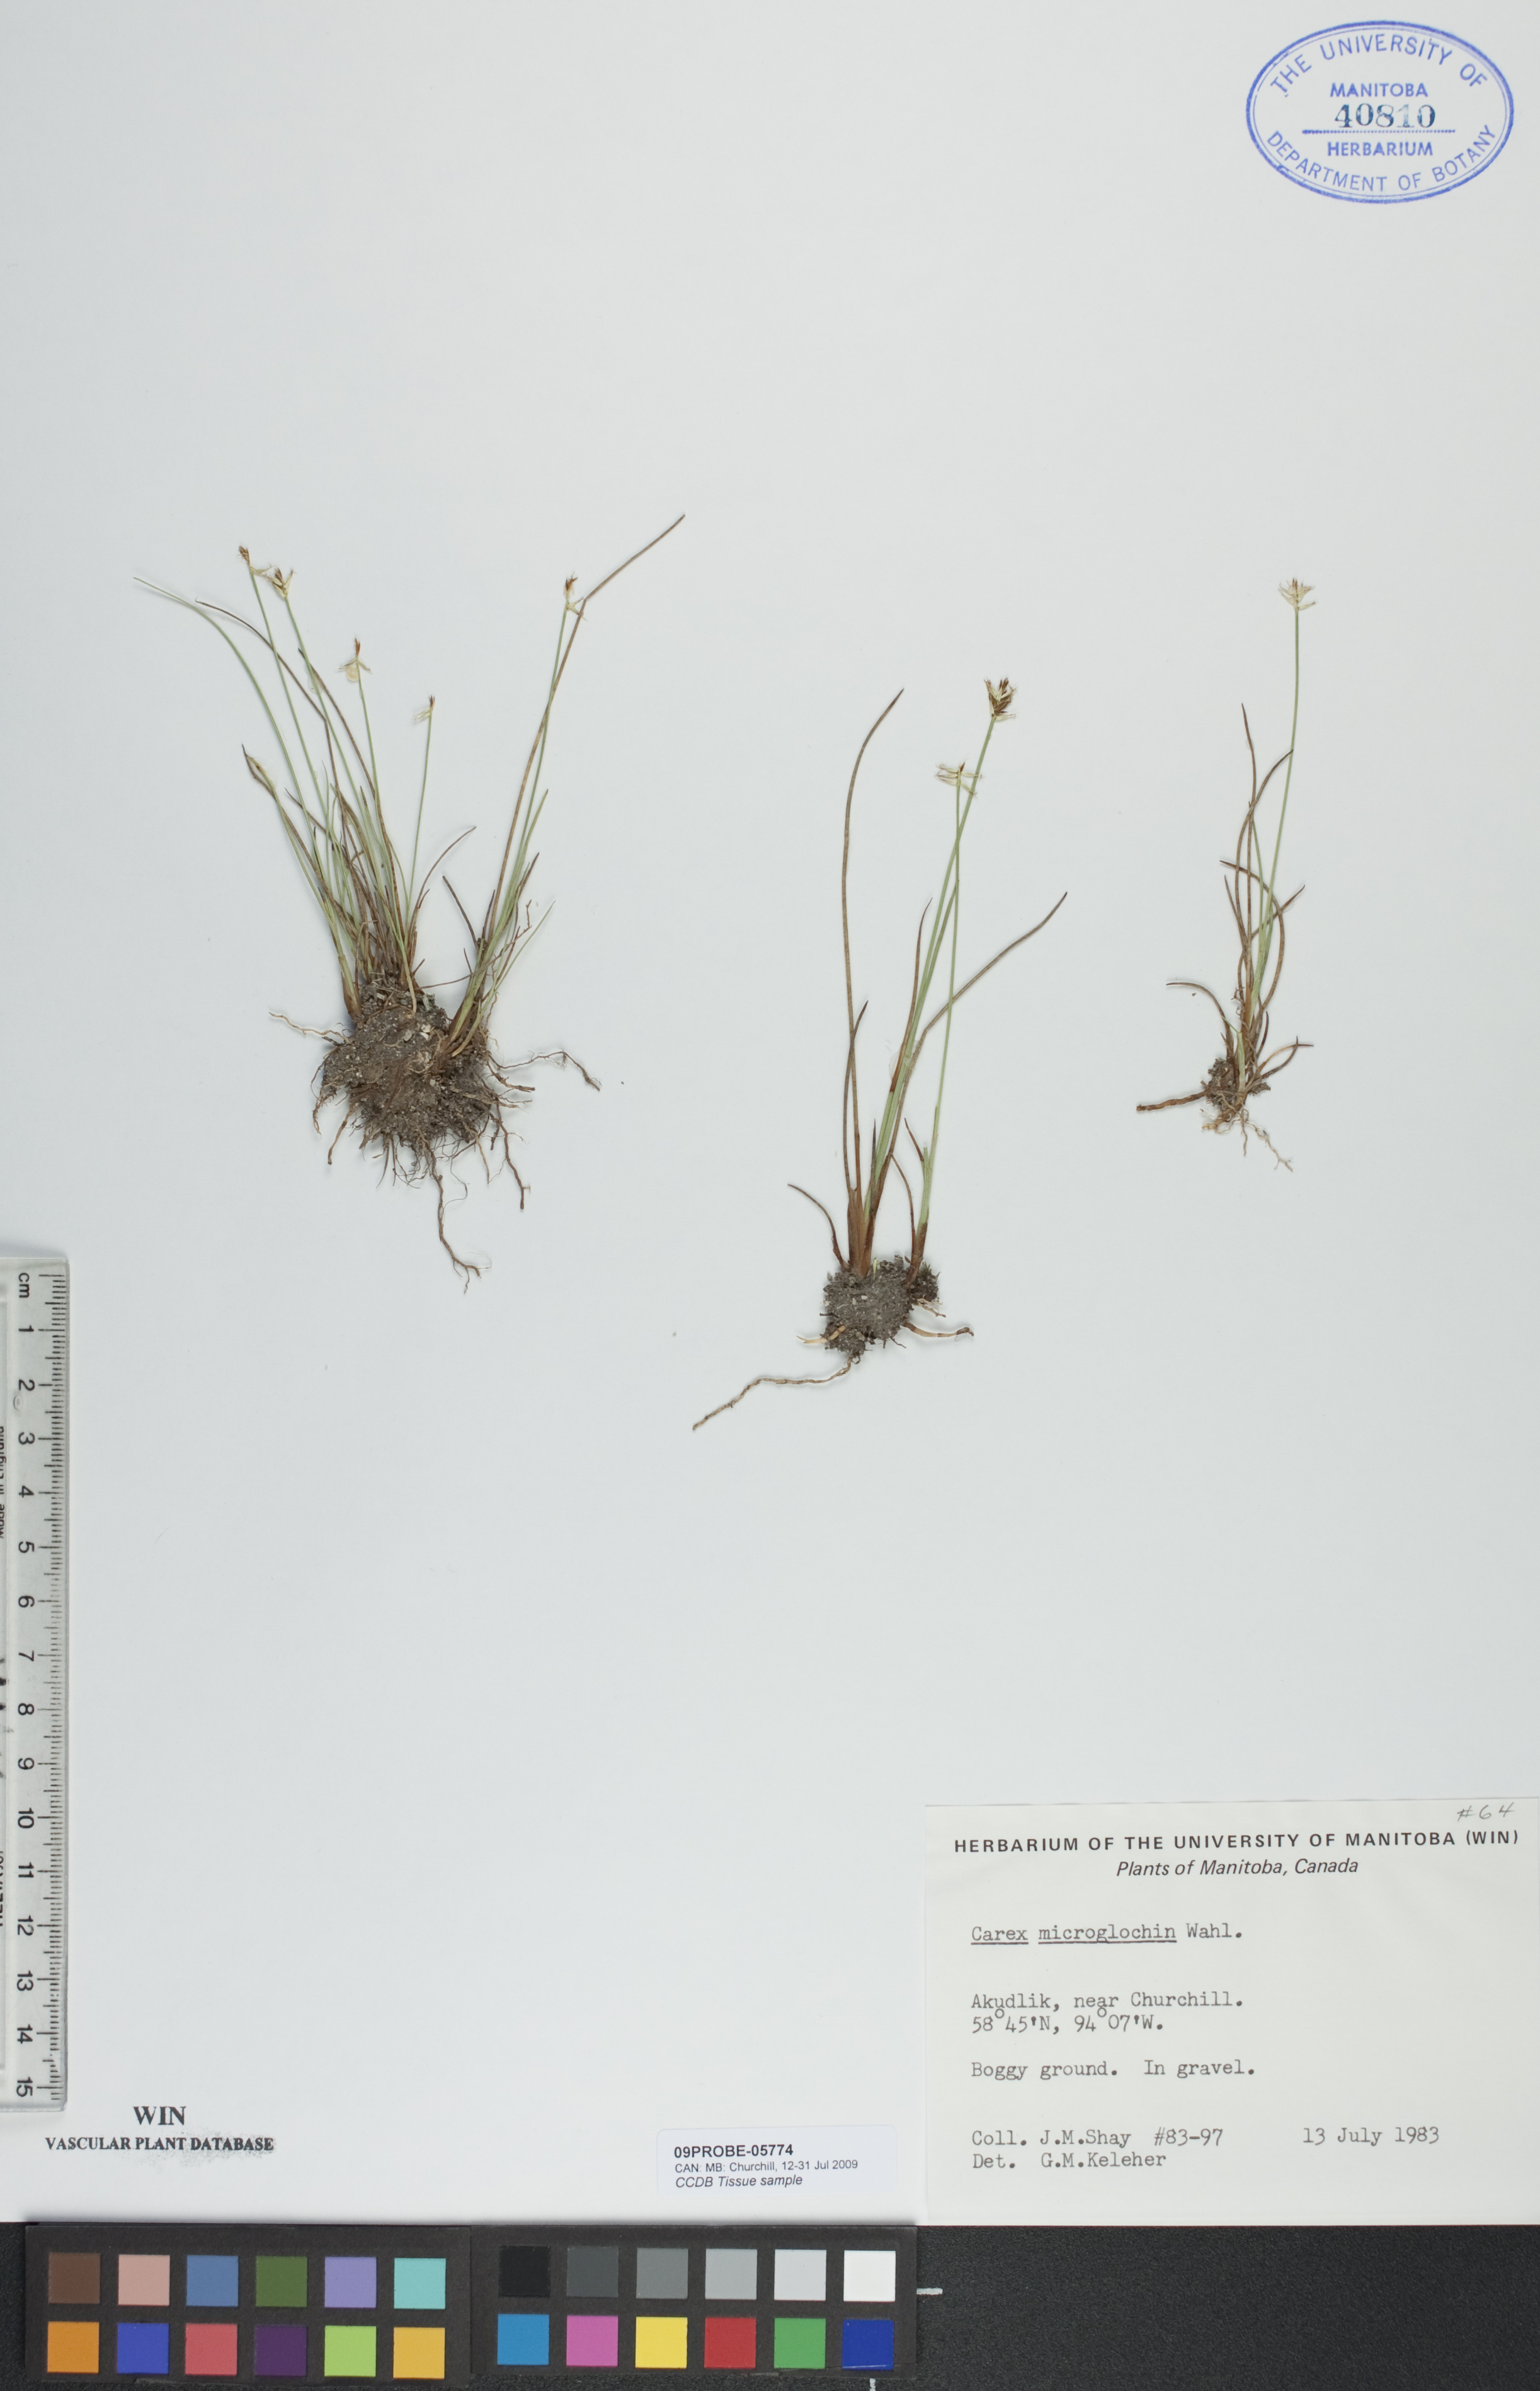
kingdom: Plantae
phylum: Tracheophyta
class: Liliopsida
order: Poales
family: Cyperaceae
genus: Carex
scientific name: Carex microglochin
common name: Bristle sedge
